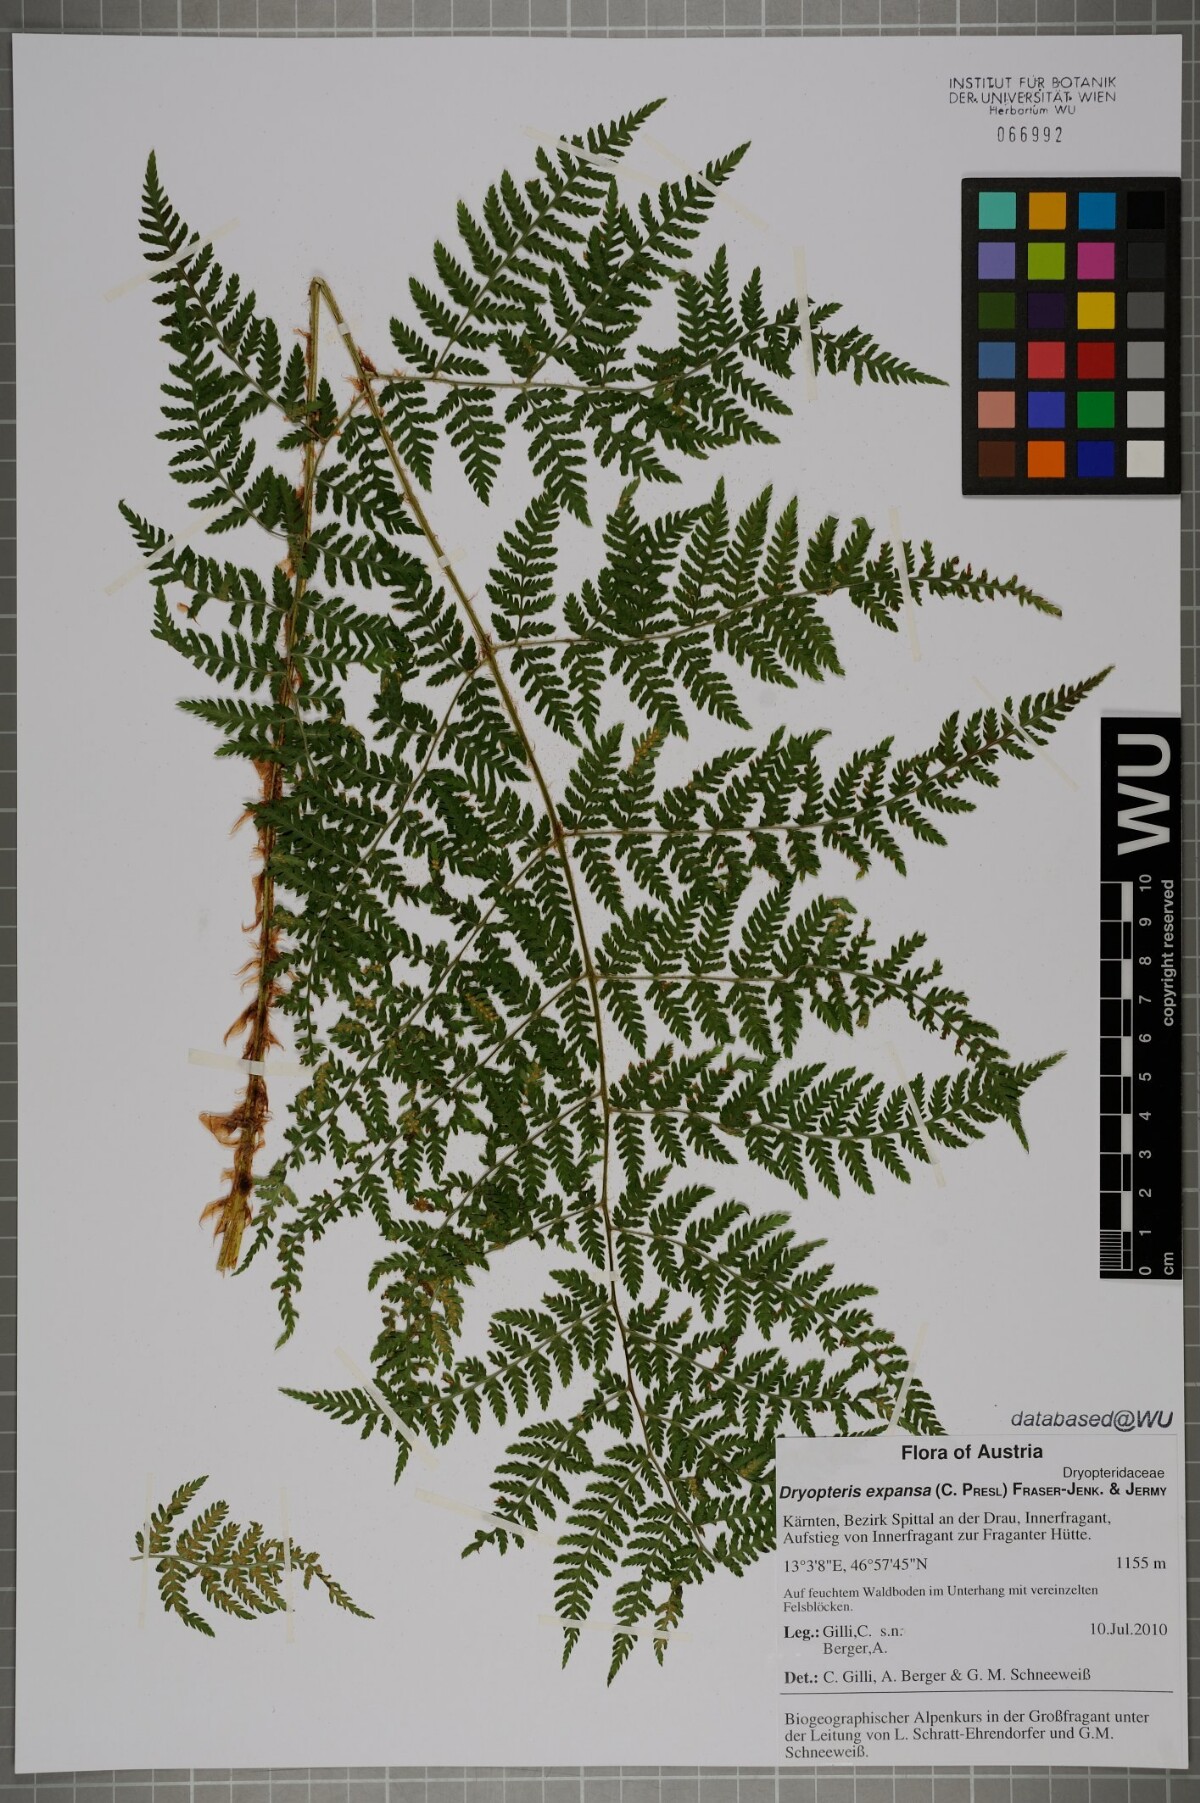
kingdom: Plantae
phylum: Tracheophyta
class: Polypodiopsida
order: Polypodiales
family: Dryopteridaceae
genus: Dryopteris
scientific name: Dryopteris expansa
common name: Northern buckler fern
